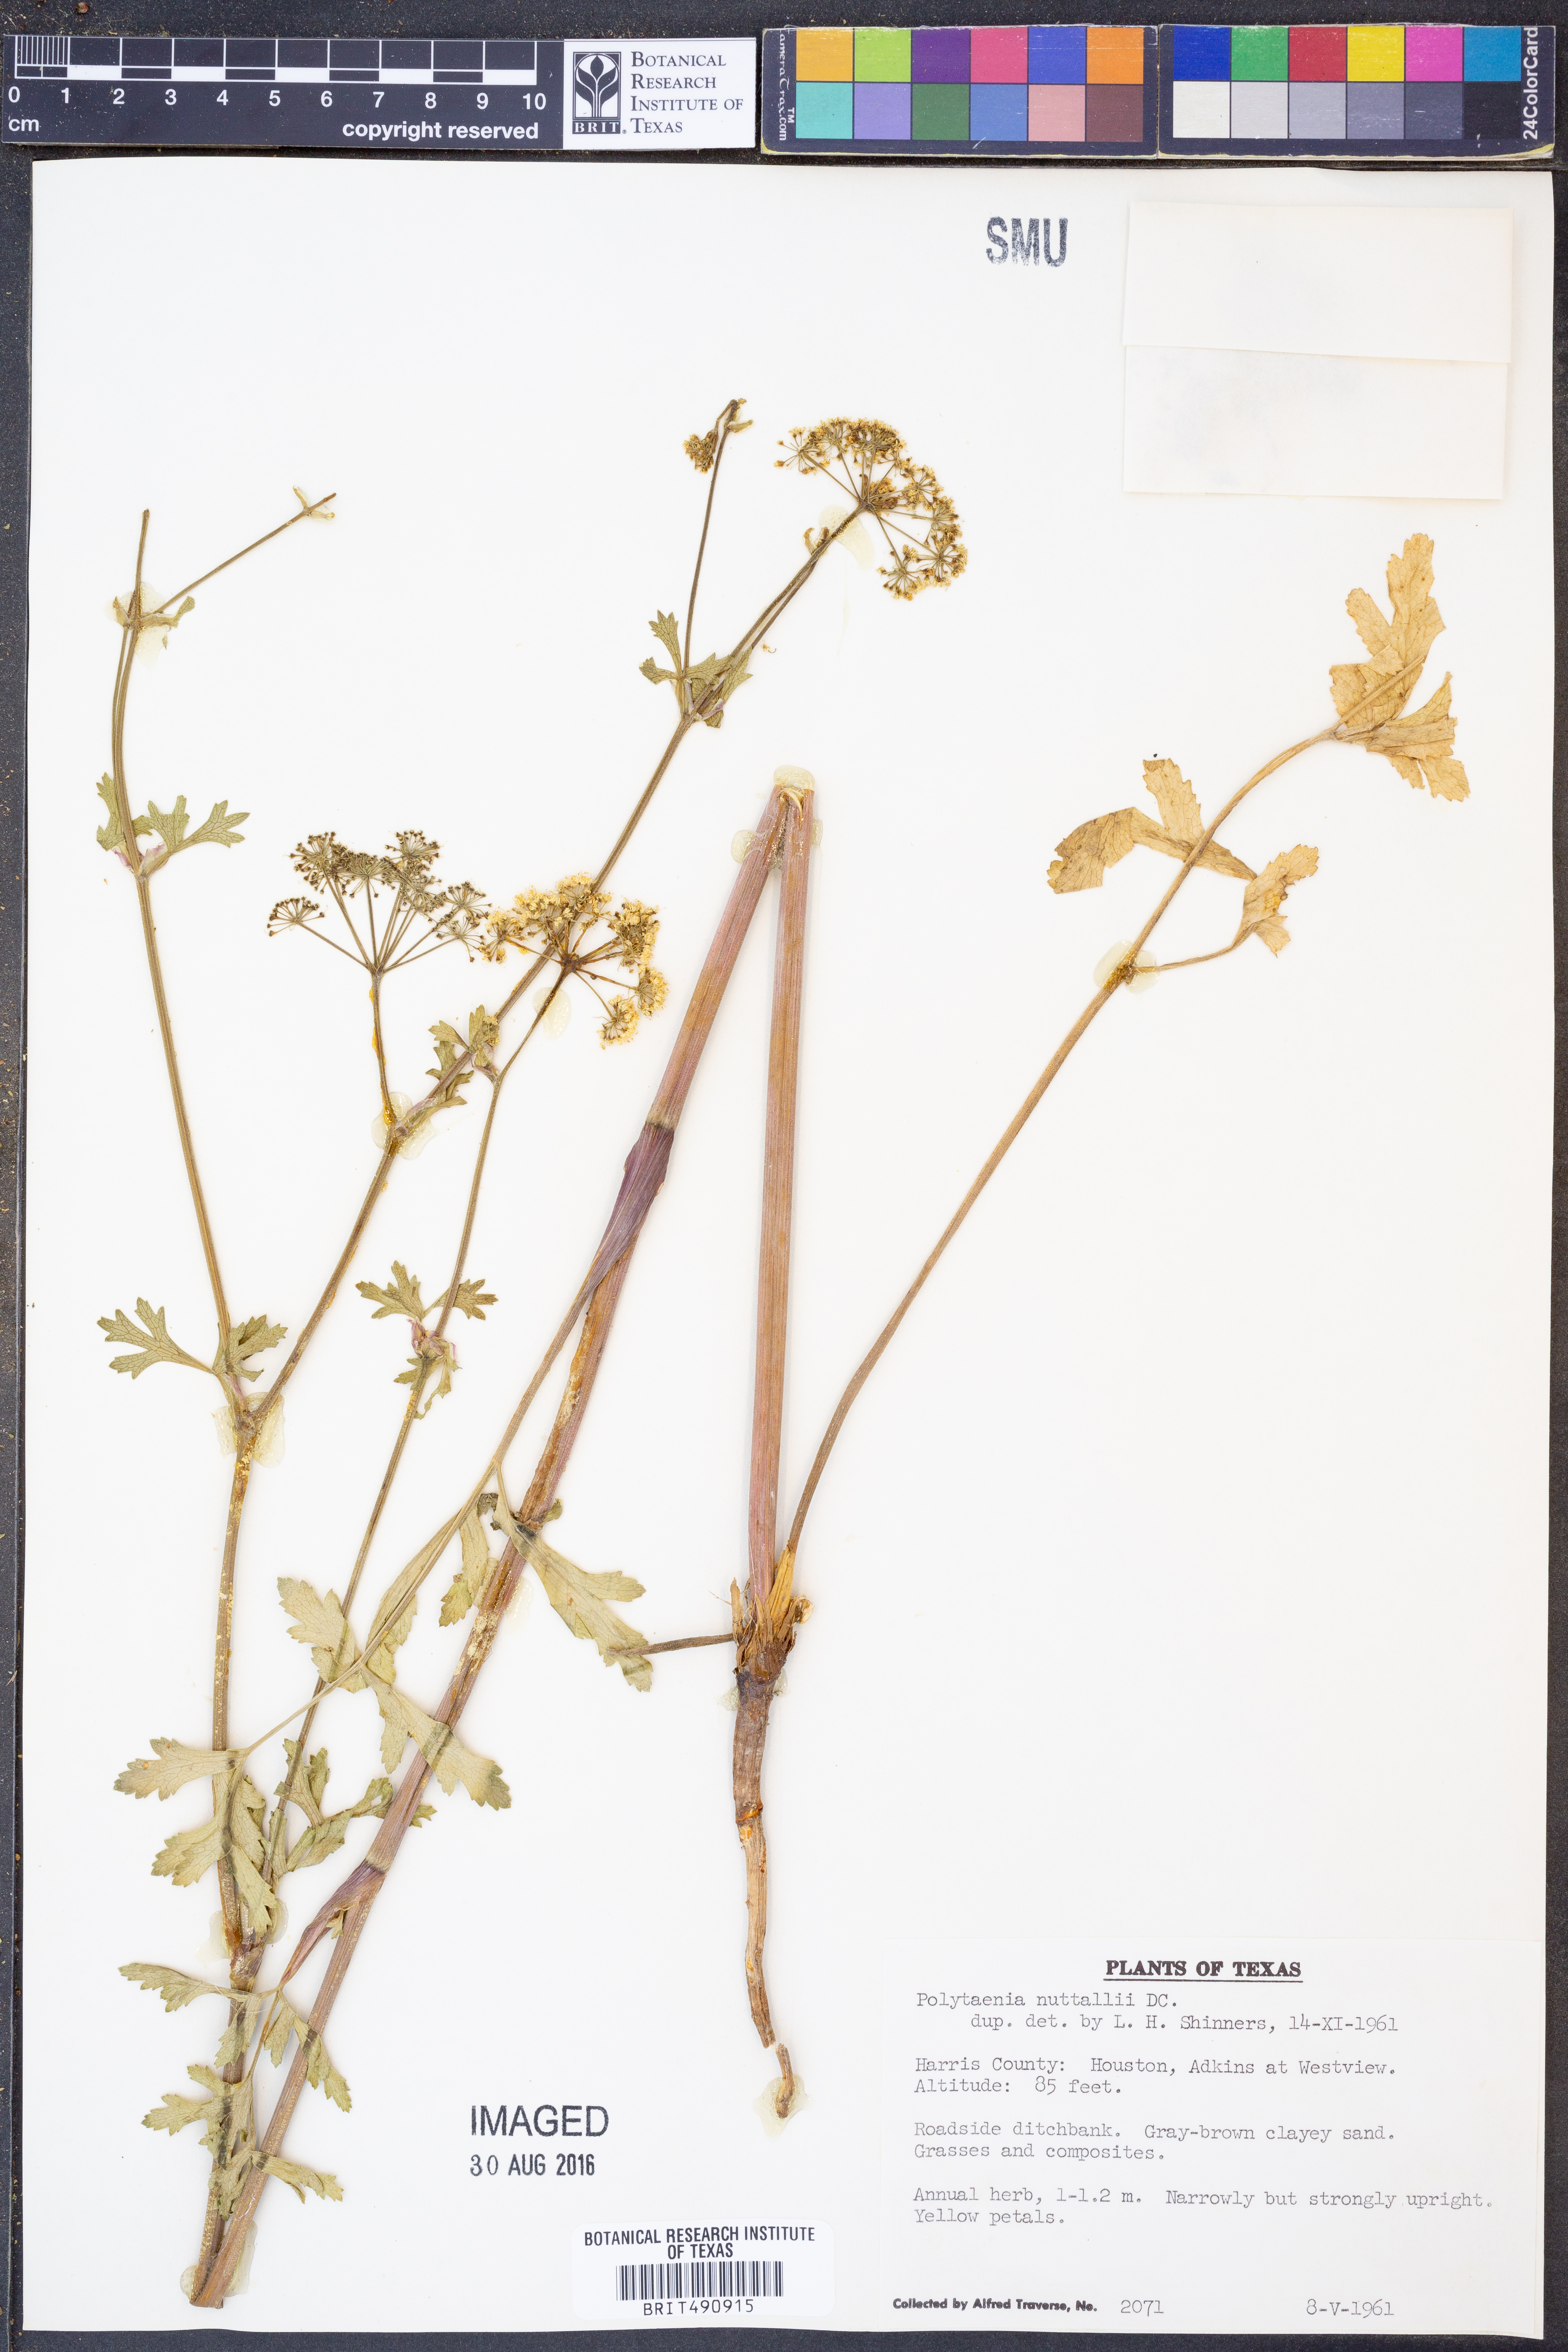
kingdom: Plantae
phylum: Tracheophyta
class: Magnoliopsida
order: Apiales
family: Apiaceae
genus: Polytaenia
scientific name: Polytaenia nuttallii
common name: Prairie-parsley
